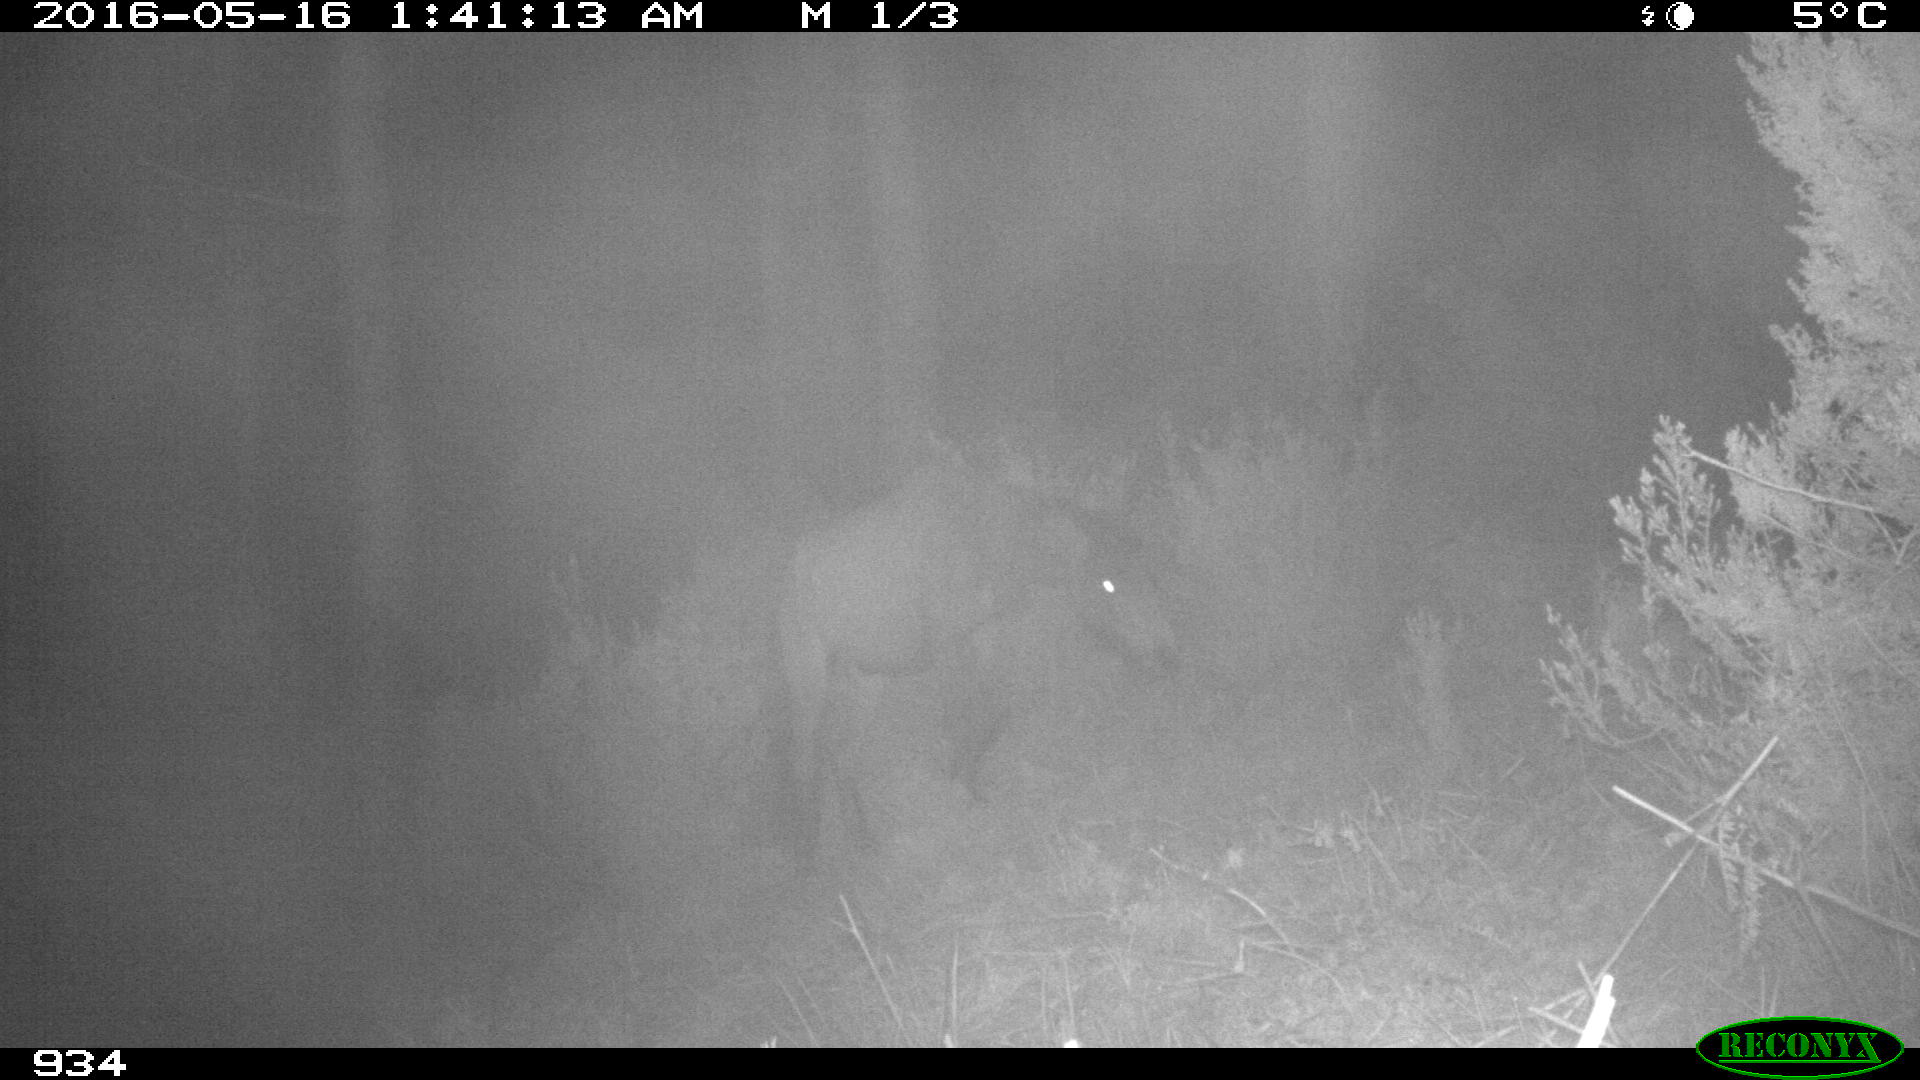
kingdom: Animalia
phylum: Chordata
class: Mammalia
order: Perissodactyla
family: Equidae
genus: Equus
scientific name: Equus caballus
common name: Horse
